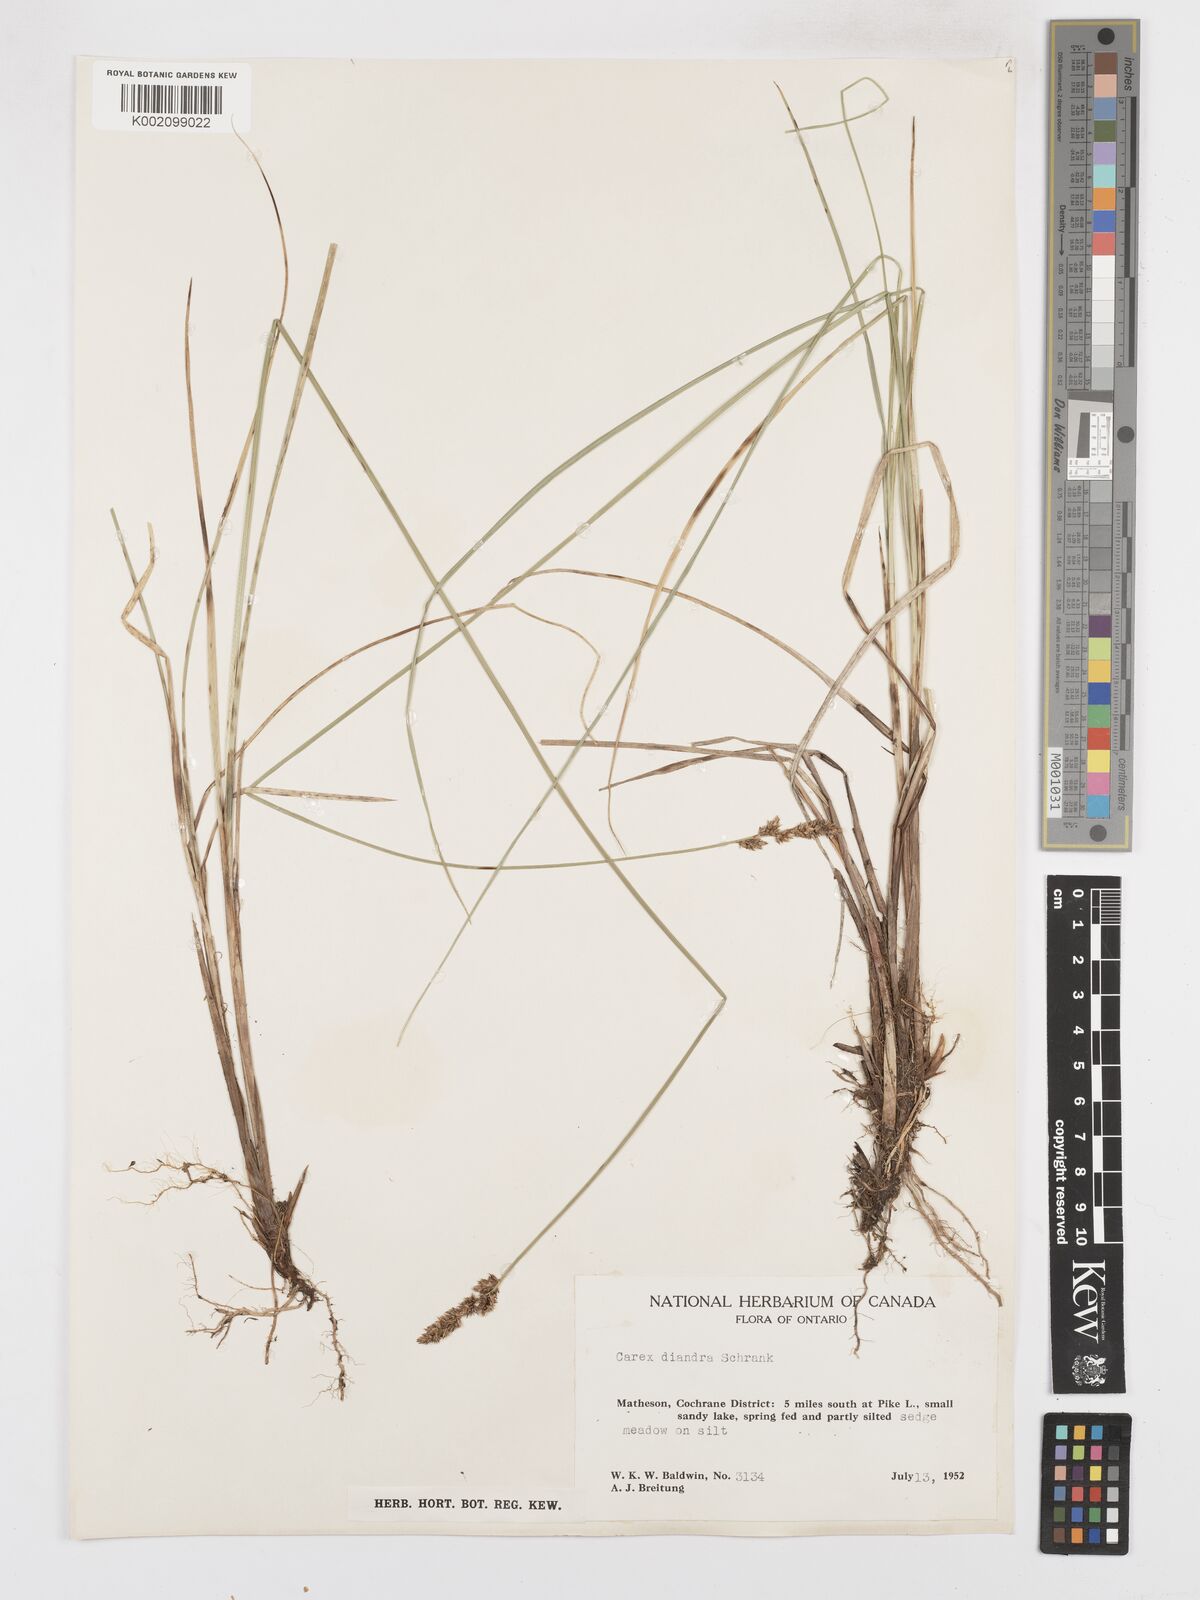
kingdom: Plantae
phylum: Tracheophyta
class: Liliopsida
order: Poales
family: Cyperaceae
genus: Carex
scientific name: Carex diandra
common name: Lesser tussock-sedge
